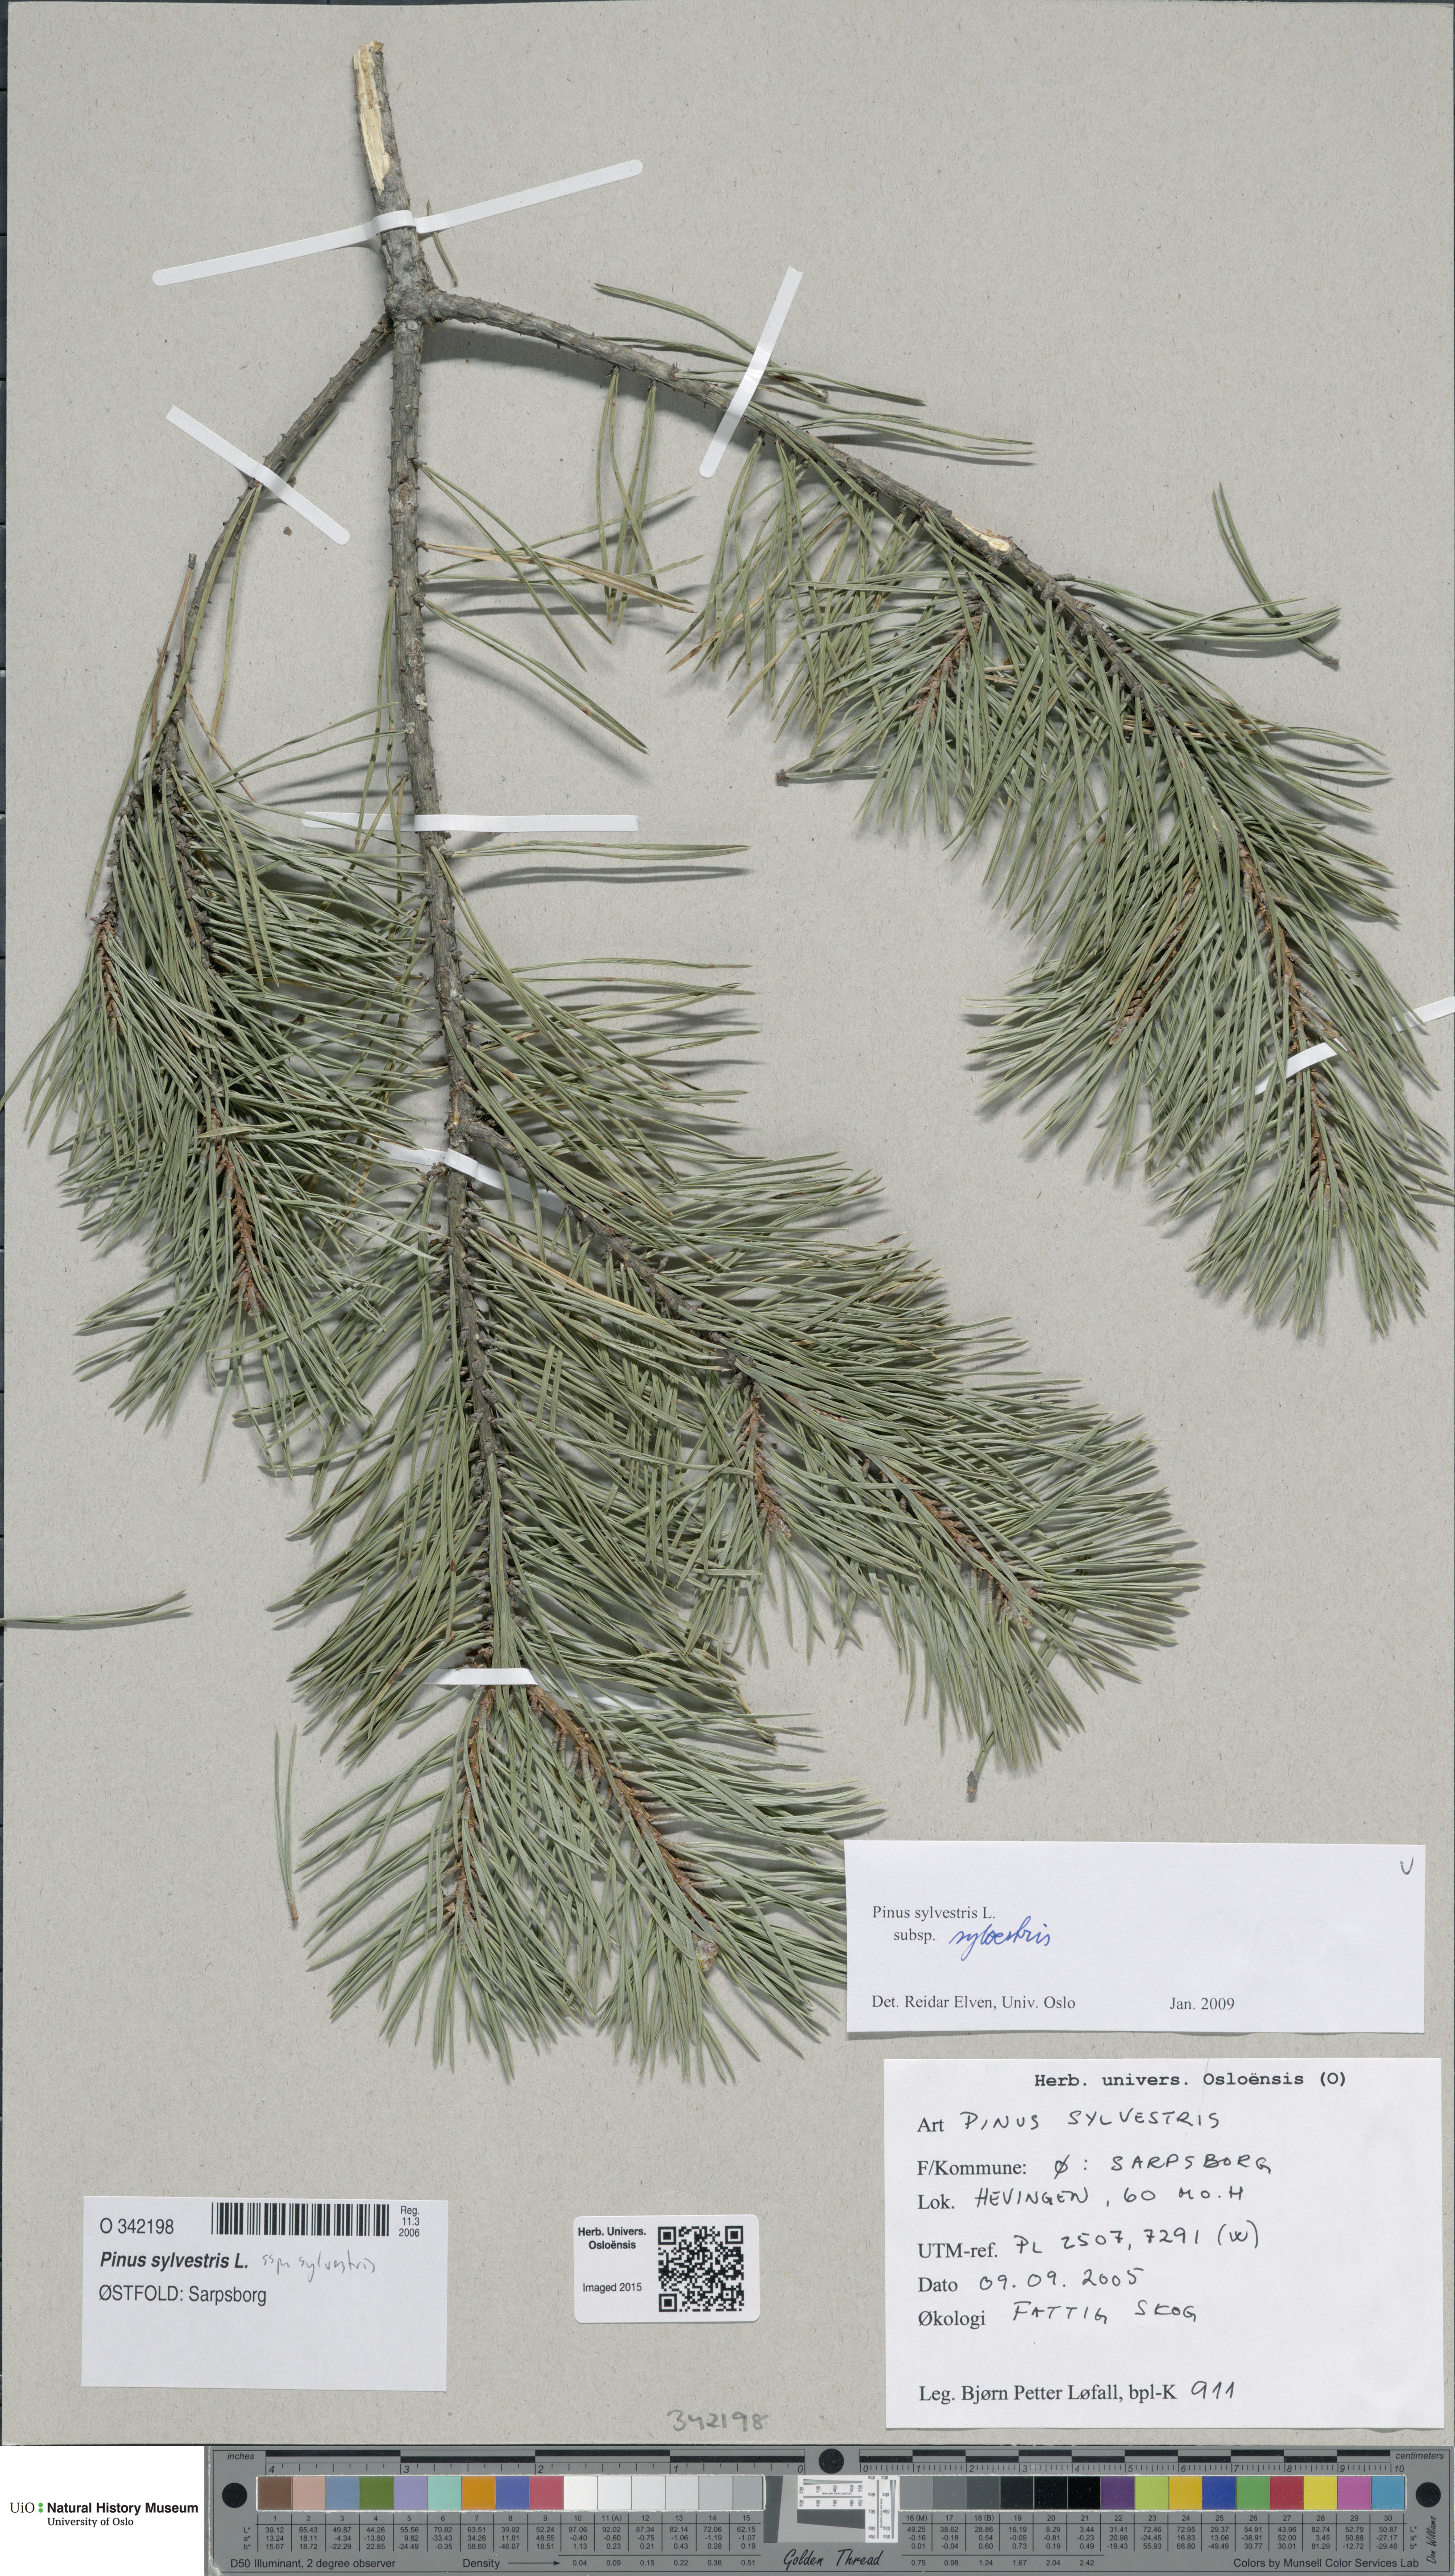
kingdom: Plantae
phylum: Tracheophyta
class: Pinopsida
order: Pinales
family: Pinaceae
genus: Pinus
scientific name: Pinus sylvestris
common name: Scots pine
